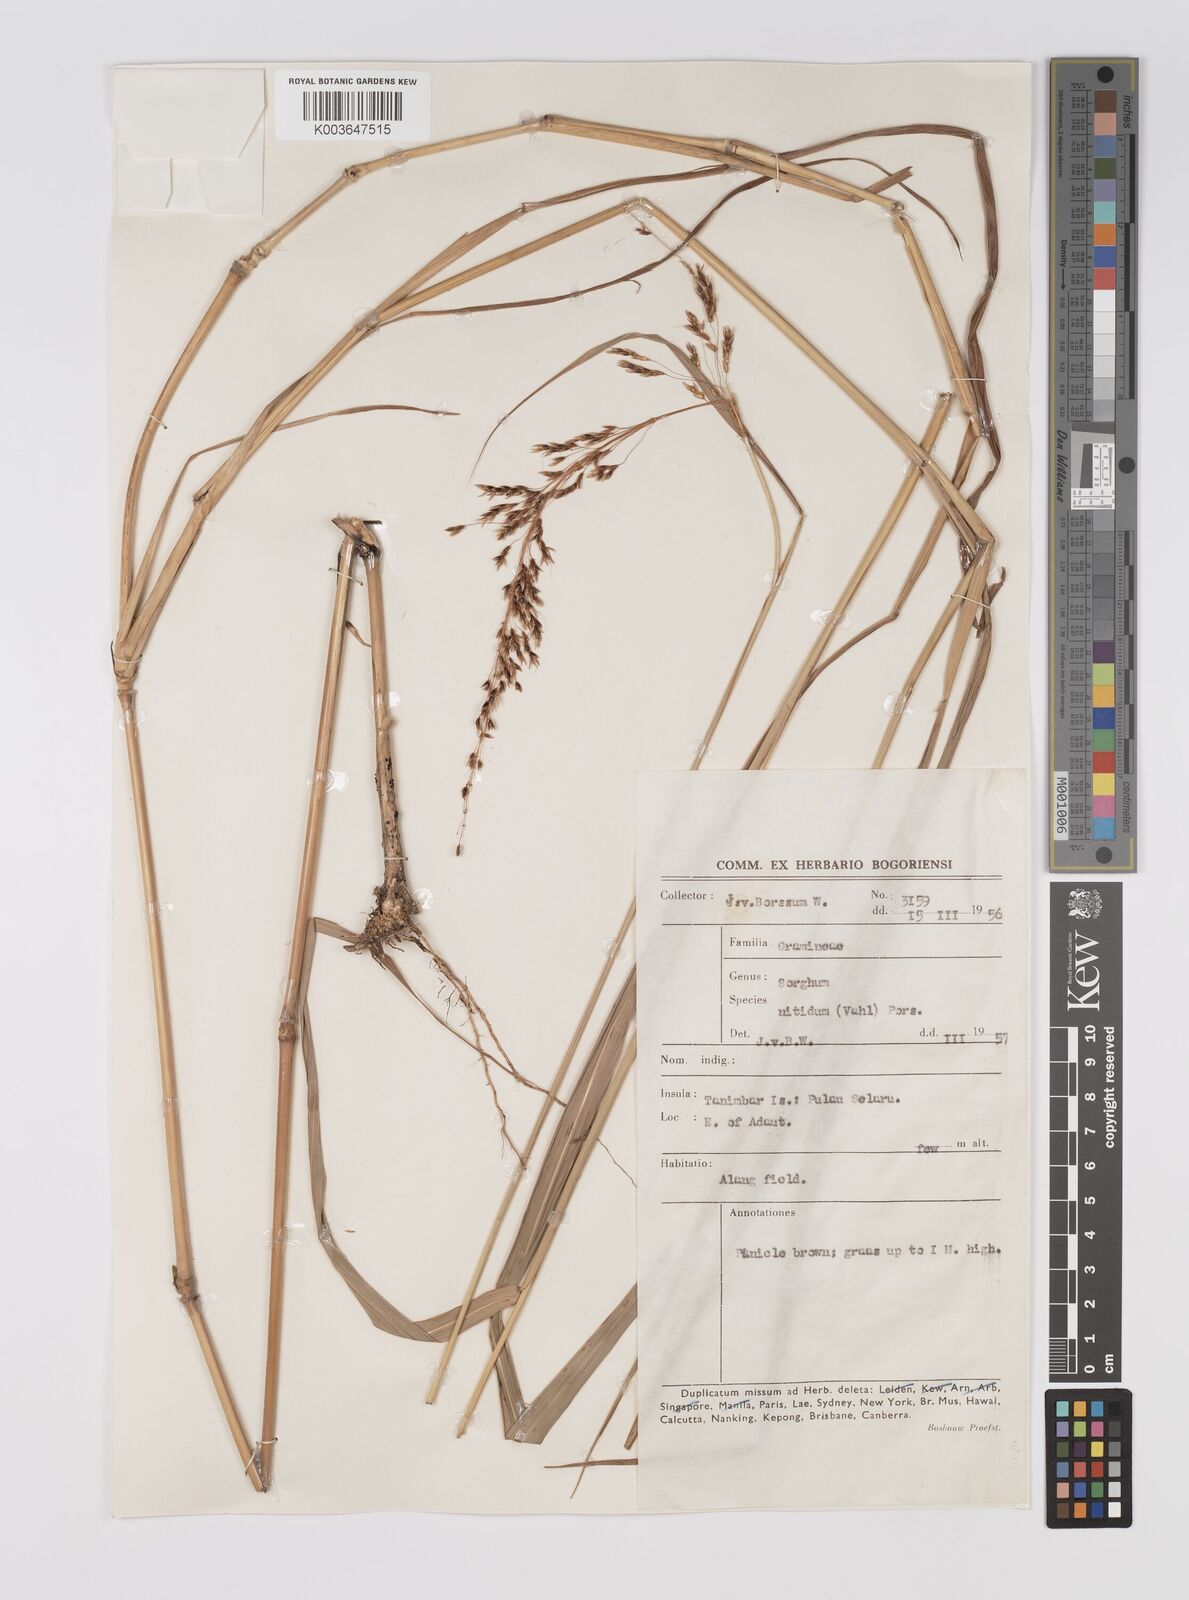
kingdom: Plantae
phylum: Tracheophyta
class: Liliopsida
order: Poales
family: Poaceae
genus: Sorghum
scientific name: Sorghum nitidum
